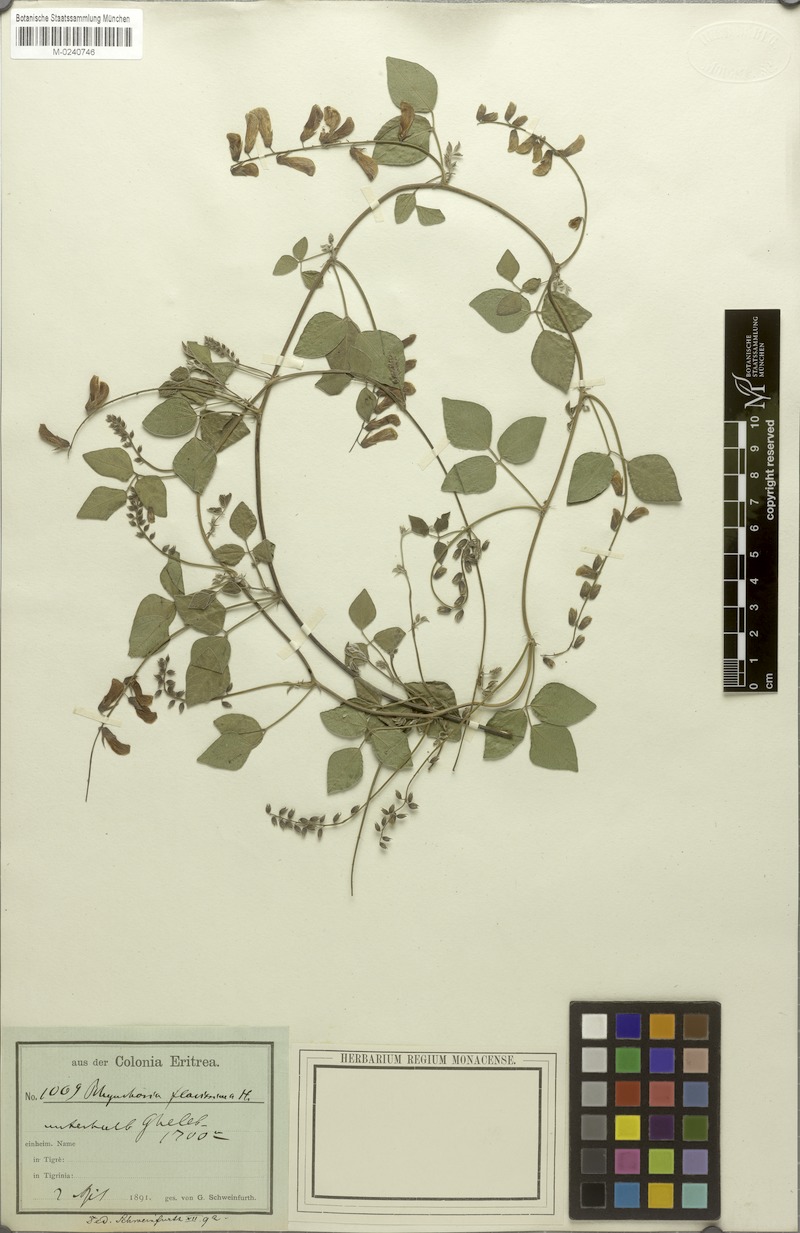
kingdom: Plantae
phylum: Tracheophyta
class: Magnoliopsida
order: Fabales
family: Fabaceae
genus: Rhynchosia
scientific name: Rhynchosia malacophylla
